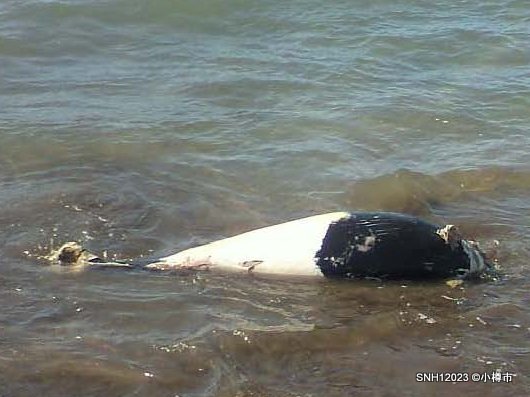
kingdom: Animalia
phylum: Chordata
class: Mammalia
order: Cetacea
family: Phocoenidae
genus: Phocoenoides
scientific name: Phocoenoides dalli
